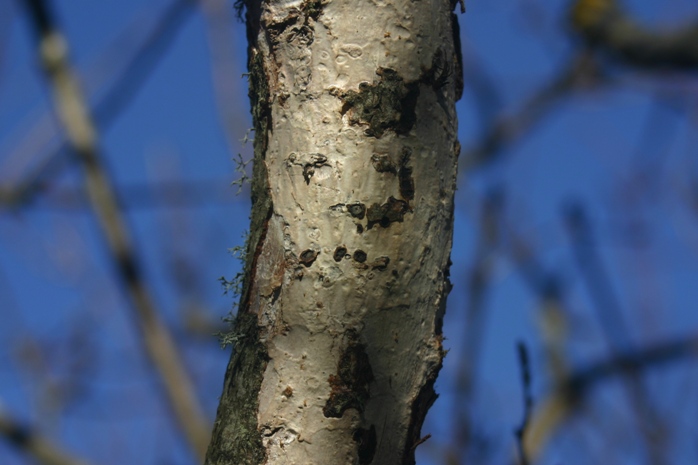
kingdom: Fungi
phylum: Basidiomycota
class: Agaricomycetes
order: Corticiales
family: Vuilleminiaceae
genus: Vuilleminia
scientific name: Vuilleminia comedens
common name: almindelig barksprænger
